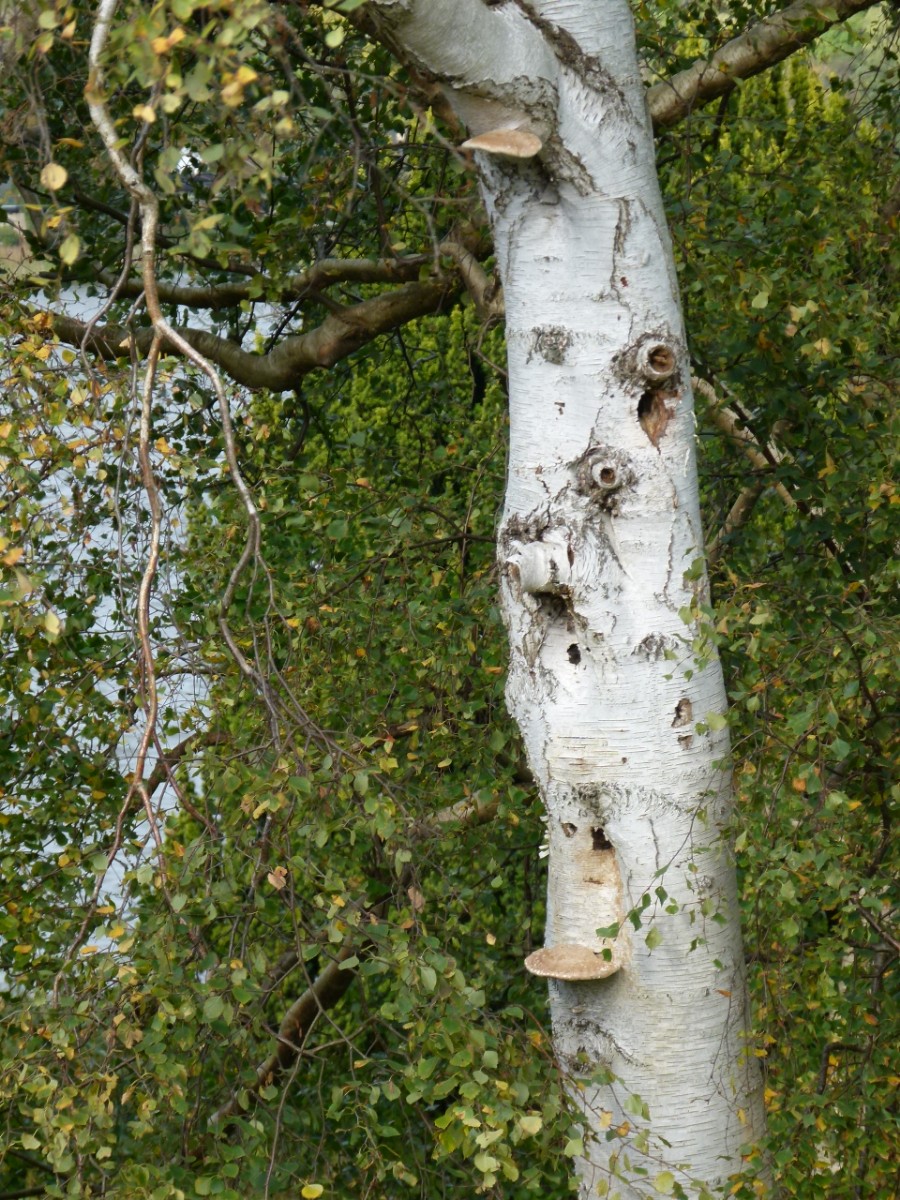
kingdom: Fungi
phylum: Basidiomycota
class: Agaricomycetes
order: Polyporales
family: Fomitopsidaceae
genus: Fomitopsis
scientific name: Fomitopsis betulina
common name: birkeporesvamp
